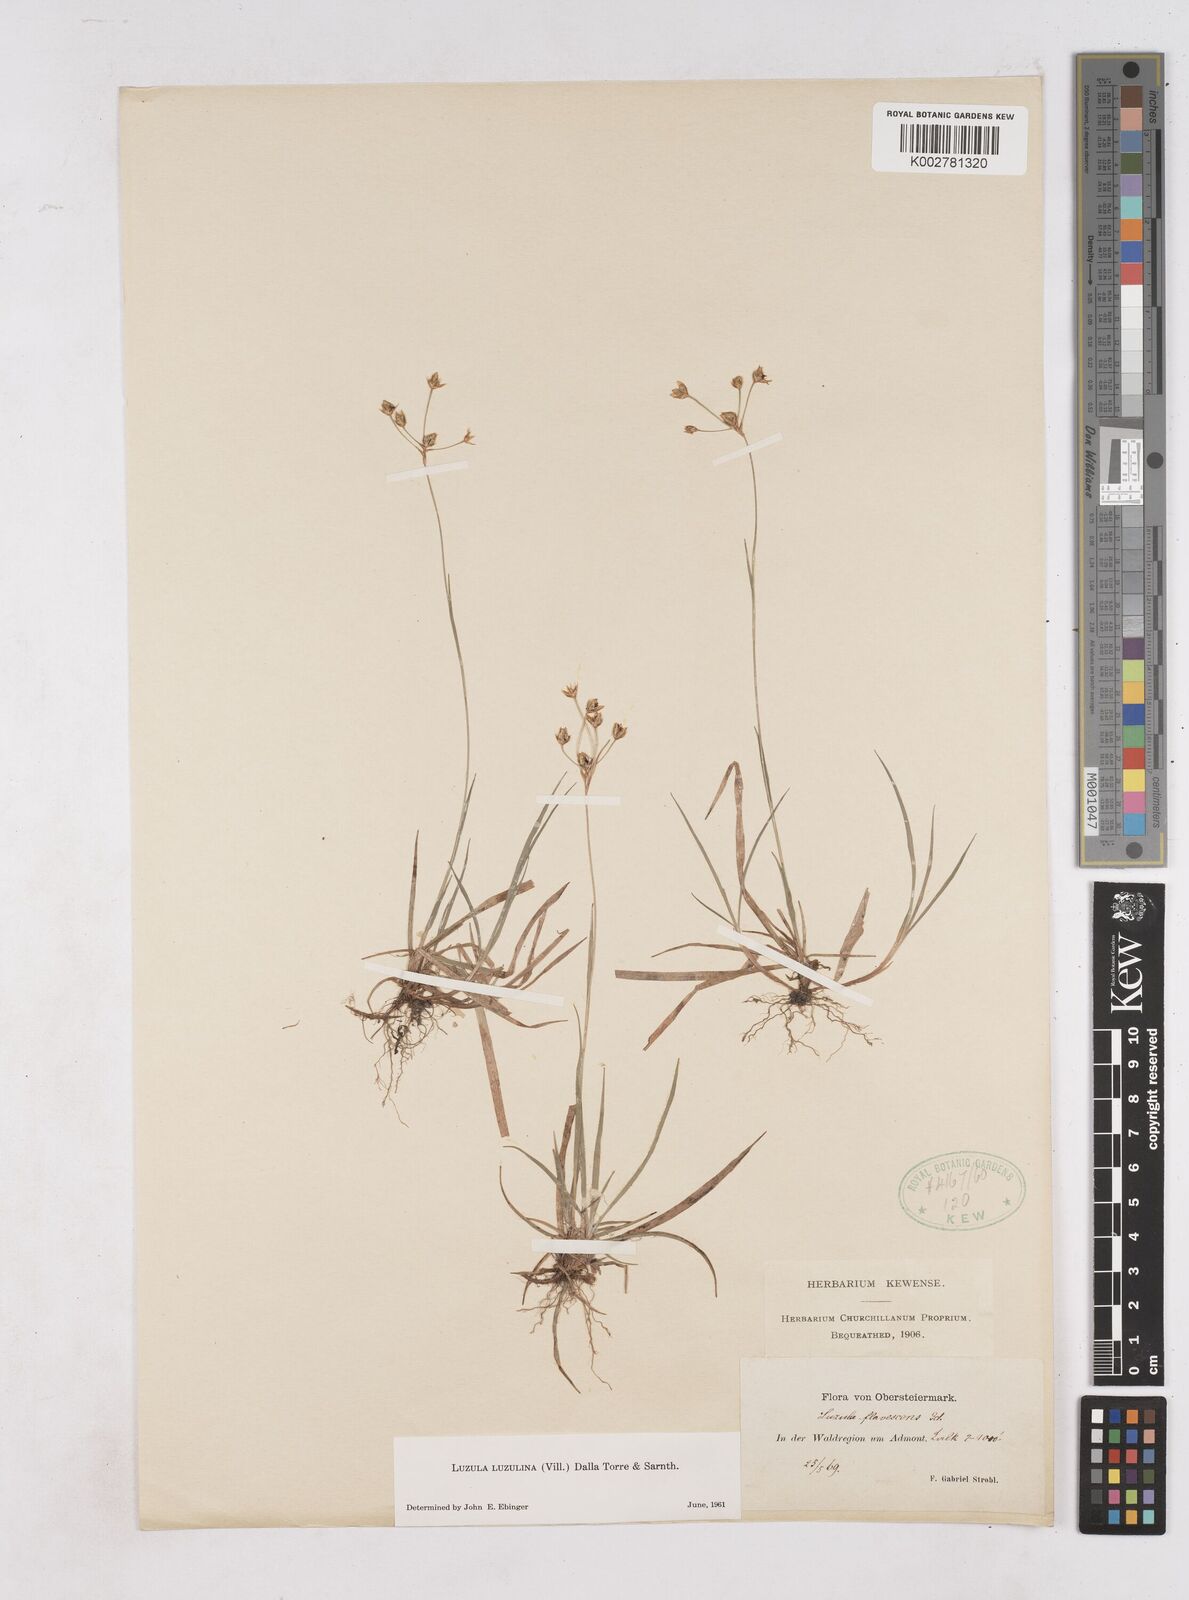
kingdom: Plantae
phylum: Tracheophyta
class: Liliopsida
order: Poales
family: Juncaceae
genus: Luzula
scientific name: Luzula luzulina
